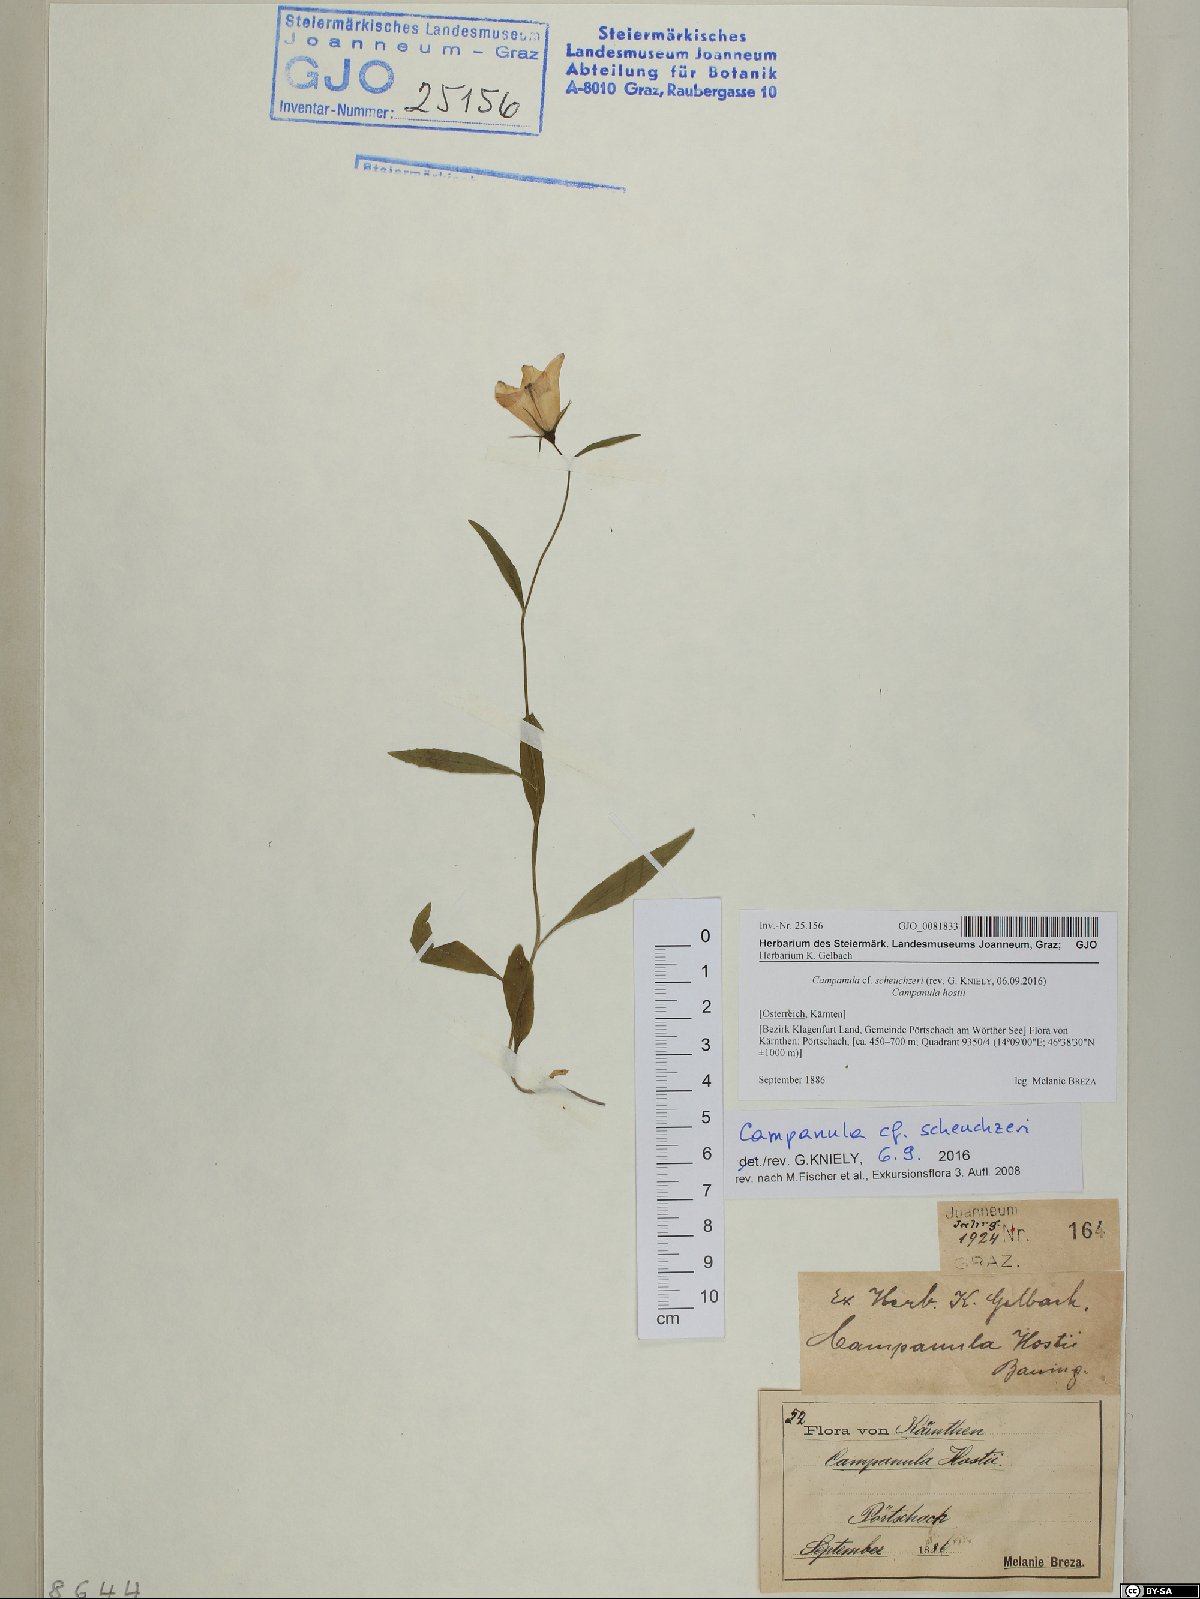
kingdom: Plantae
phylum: Tracheophyta
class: Magnoliopsida
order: Asterales
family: Campanulaceae
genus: Campanula
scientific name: Campanula scheuchzeri
